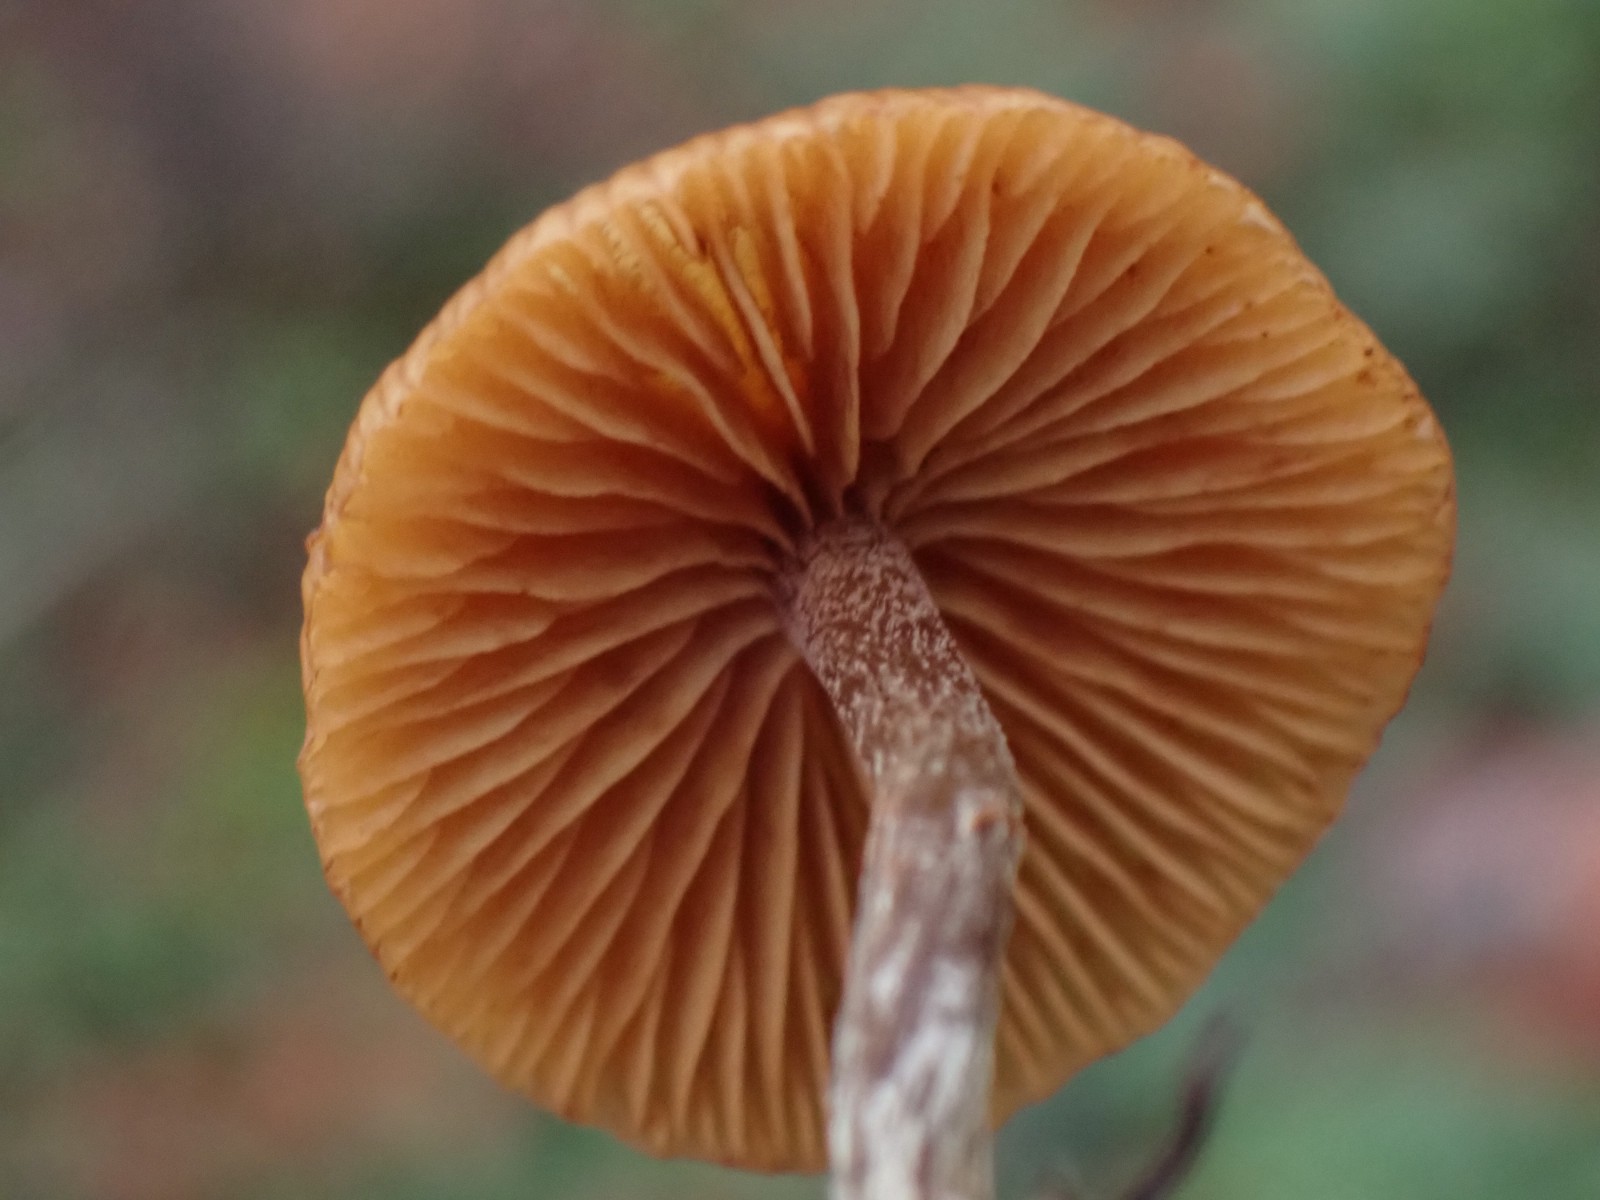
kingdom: Fungi
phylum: Basidiomycota
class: Agaricomycetes
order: Agaricales
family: Hymenogastraceae
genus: Galerina
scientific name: Galerina
